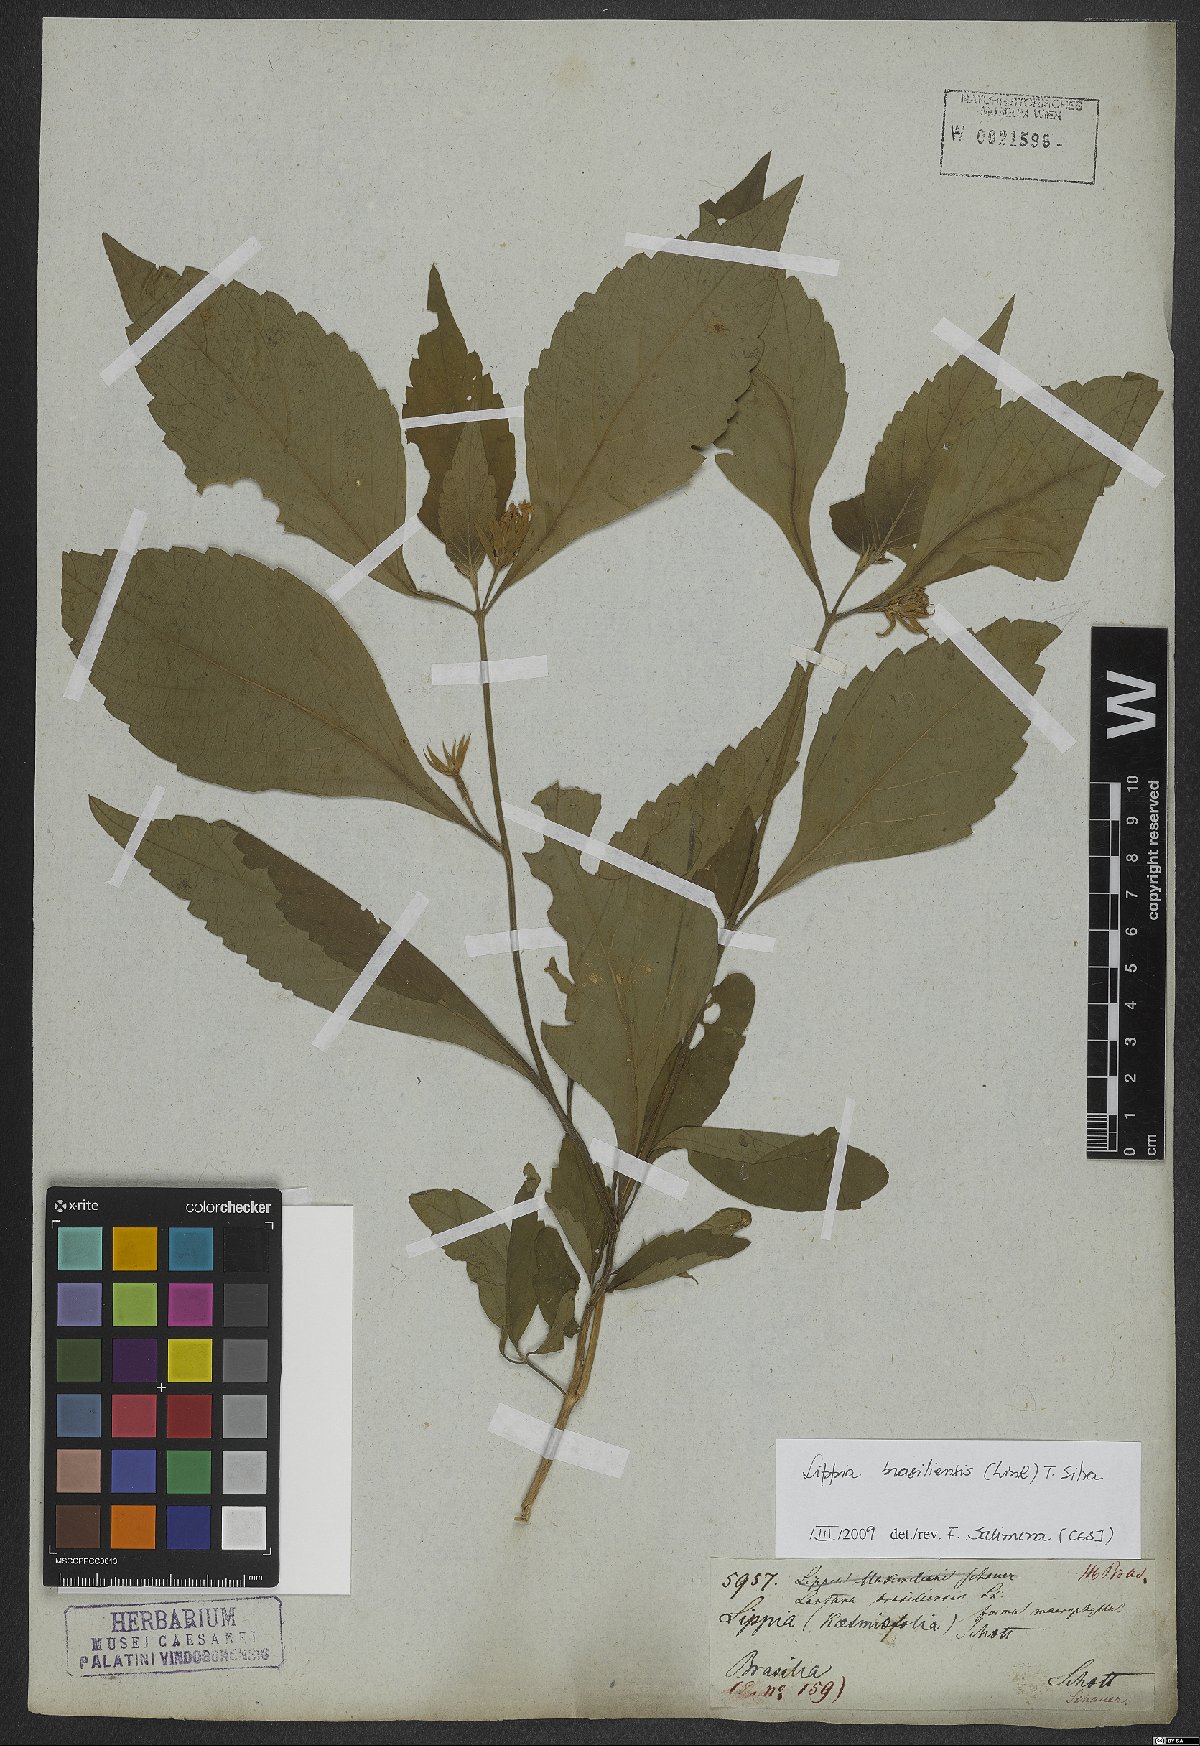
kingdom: Plantae
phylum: Tracheophyta
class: Magnoliopsida
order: Lamiales
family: Verbenaceae
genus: Lippia
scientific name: Lippia brasiliensis
